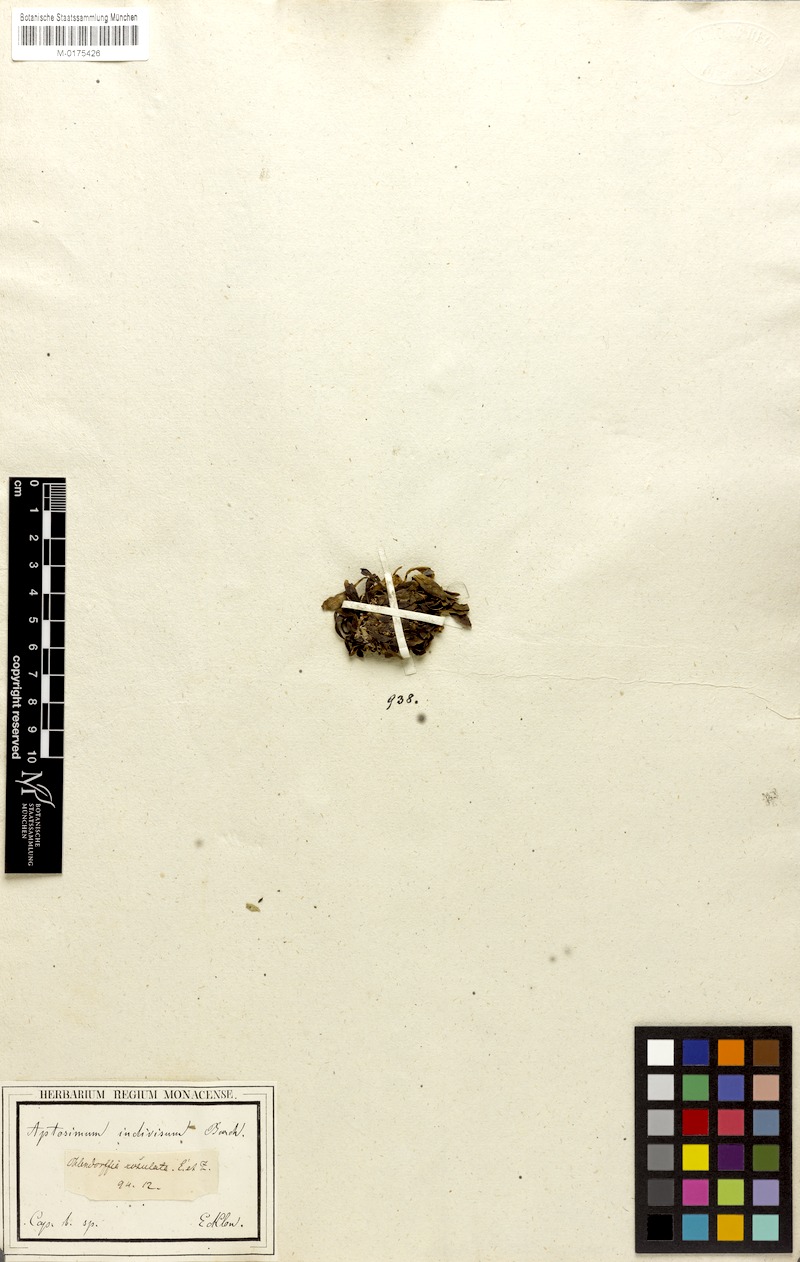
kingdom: Plantae
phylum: Tracheophyta
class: Magnoliopsida
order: Lamiales
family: Scrophulariaceae
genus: Aptosimum
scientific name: Aptosimum indivisum
